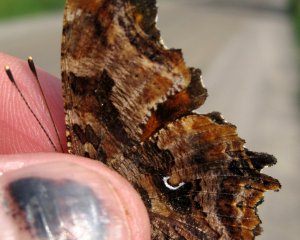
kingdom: Animalia
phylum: Arthropoda
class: Insecta
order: Lepidoptera
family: Nymphalidae
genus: Polygonia
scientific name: Polygonia comma
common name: Eastern Comma
